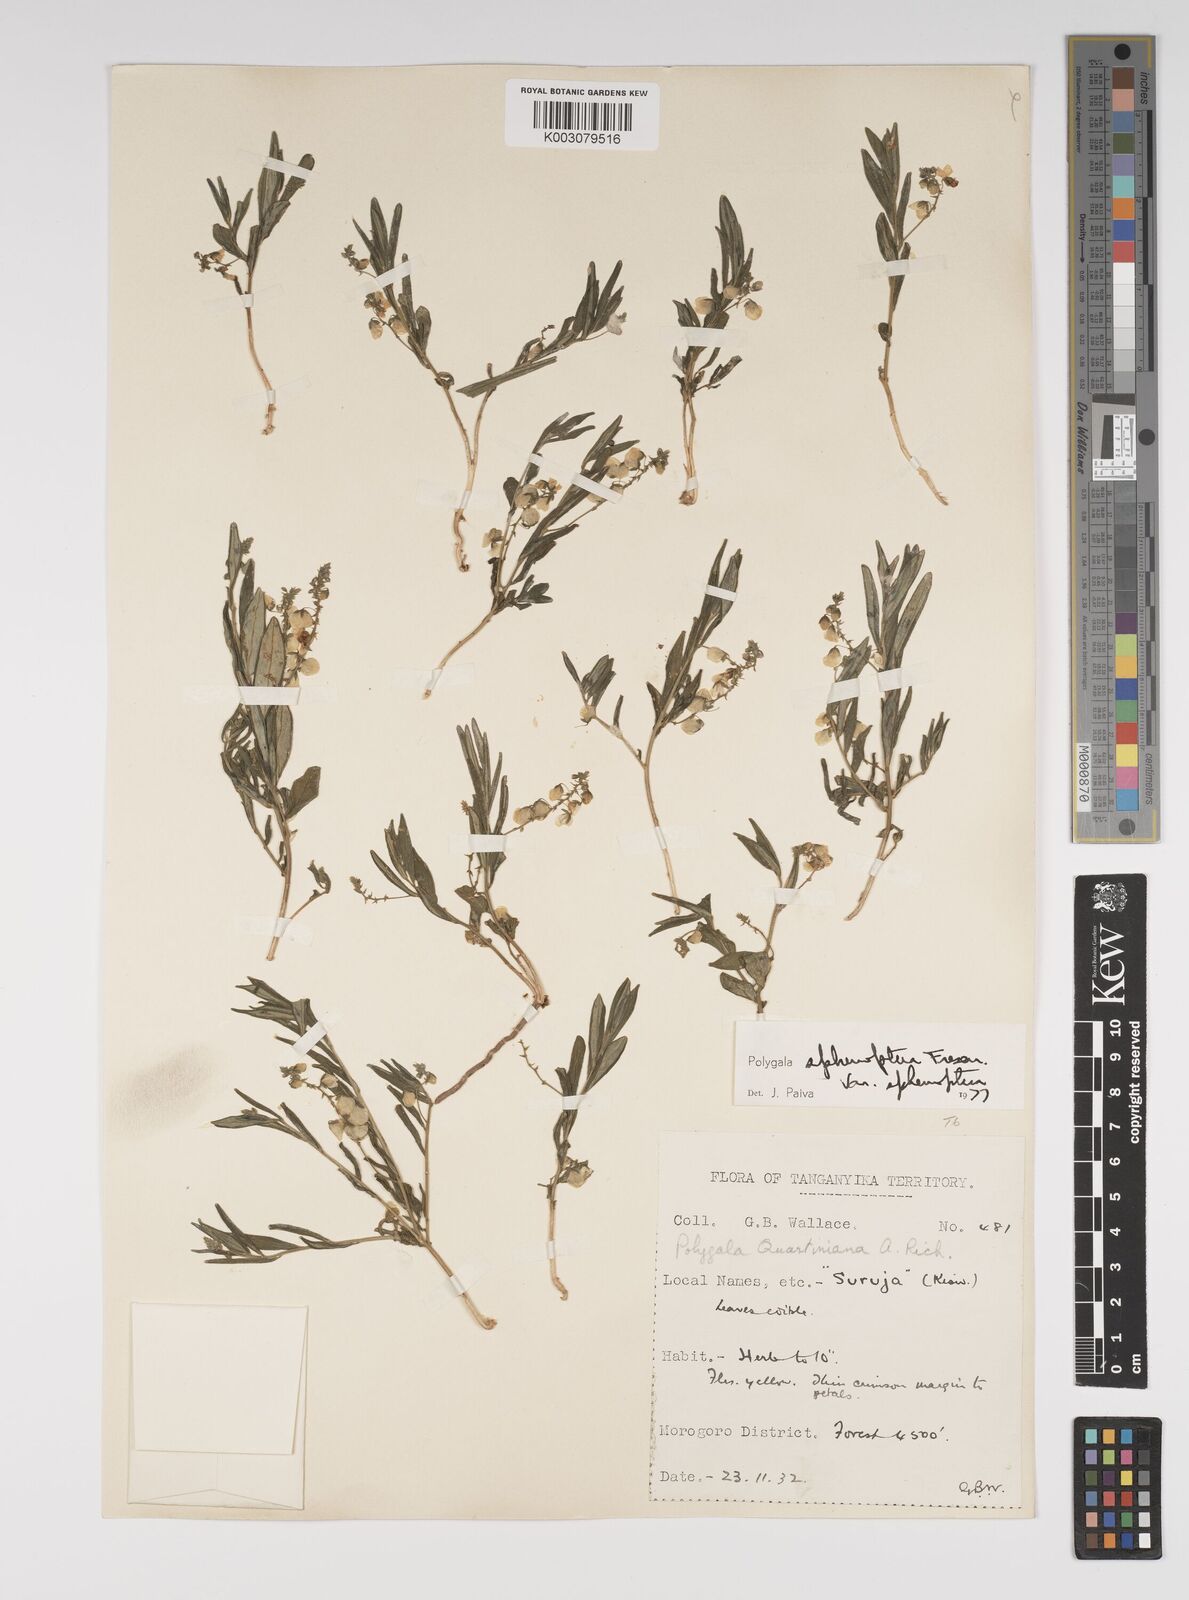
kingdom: Plantae
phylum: Tracheophyta
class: Magnoliopsida
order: Fabales
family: Polygalaceae
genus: Polygala
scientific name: Polygala sphenoptera
